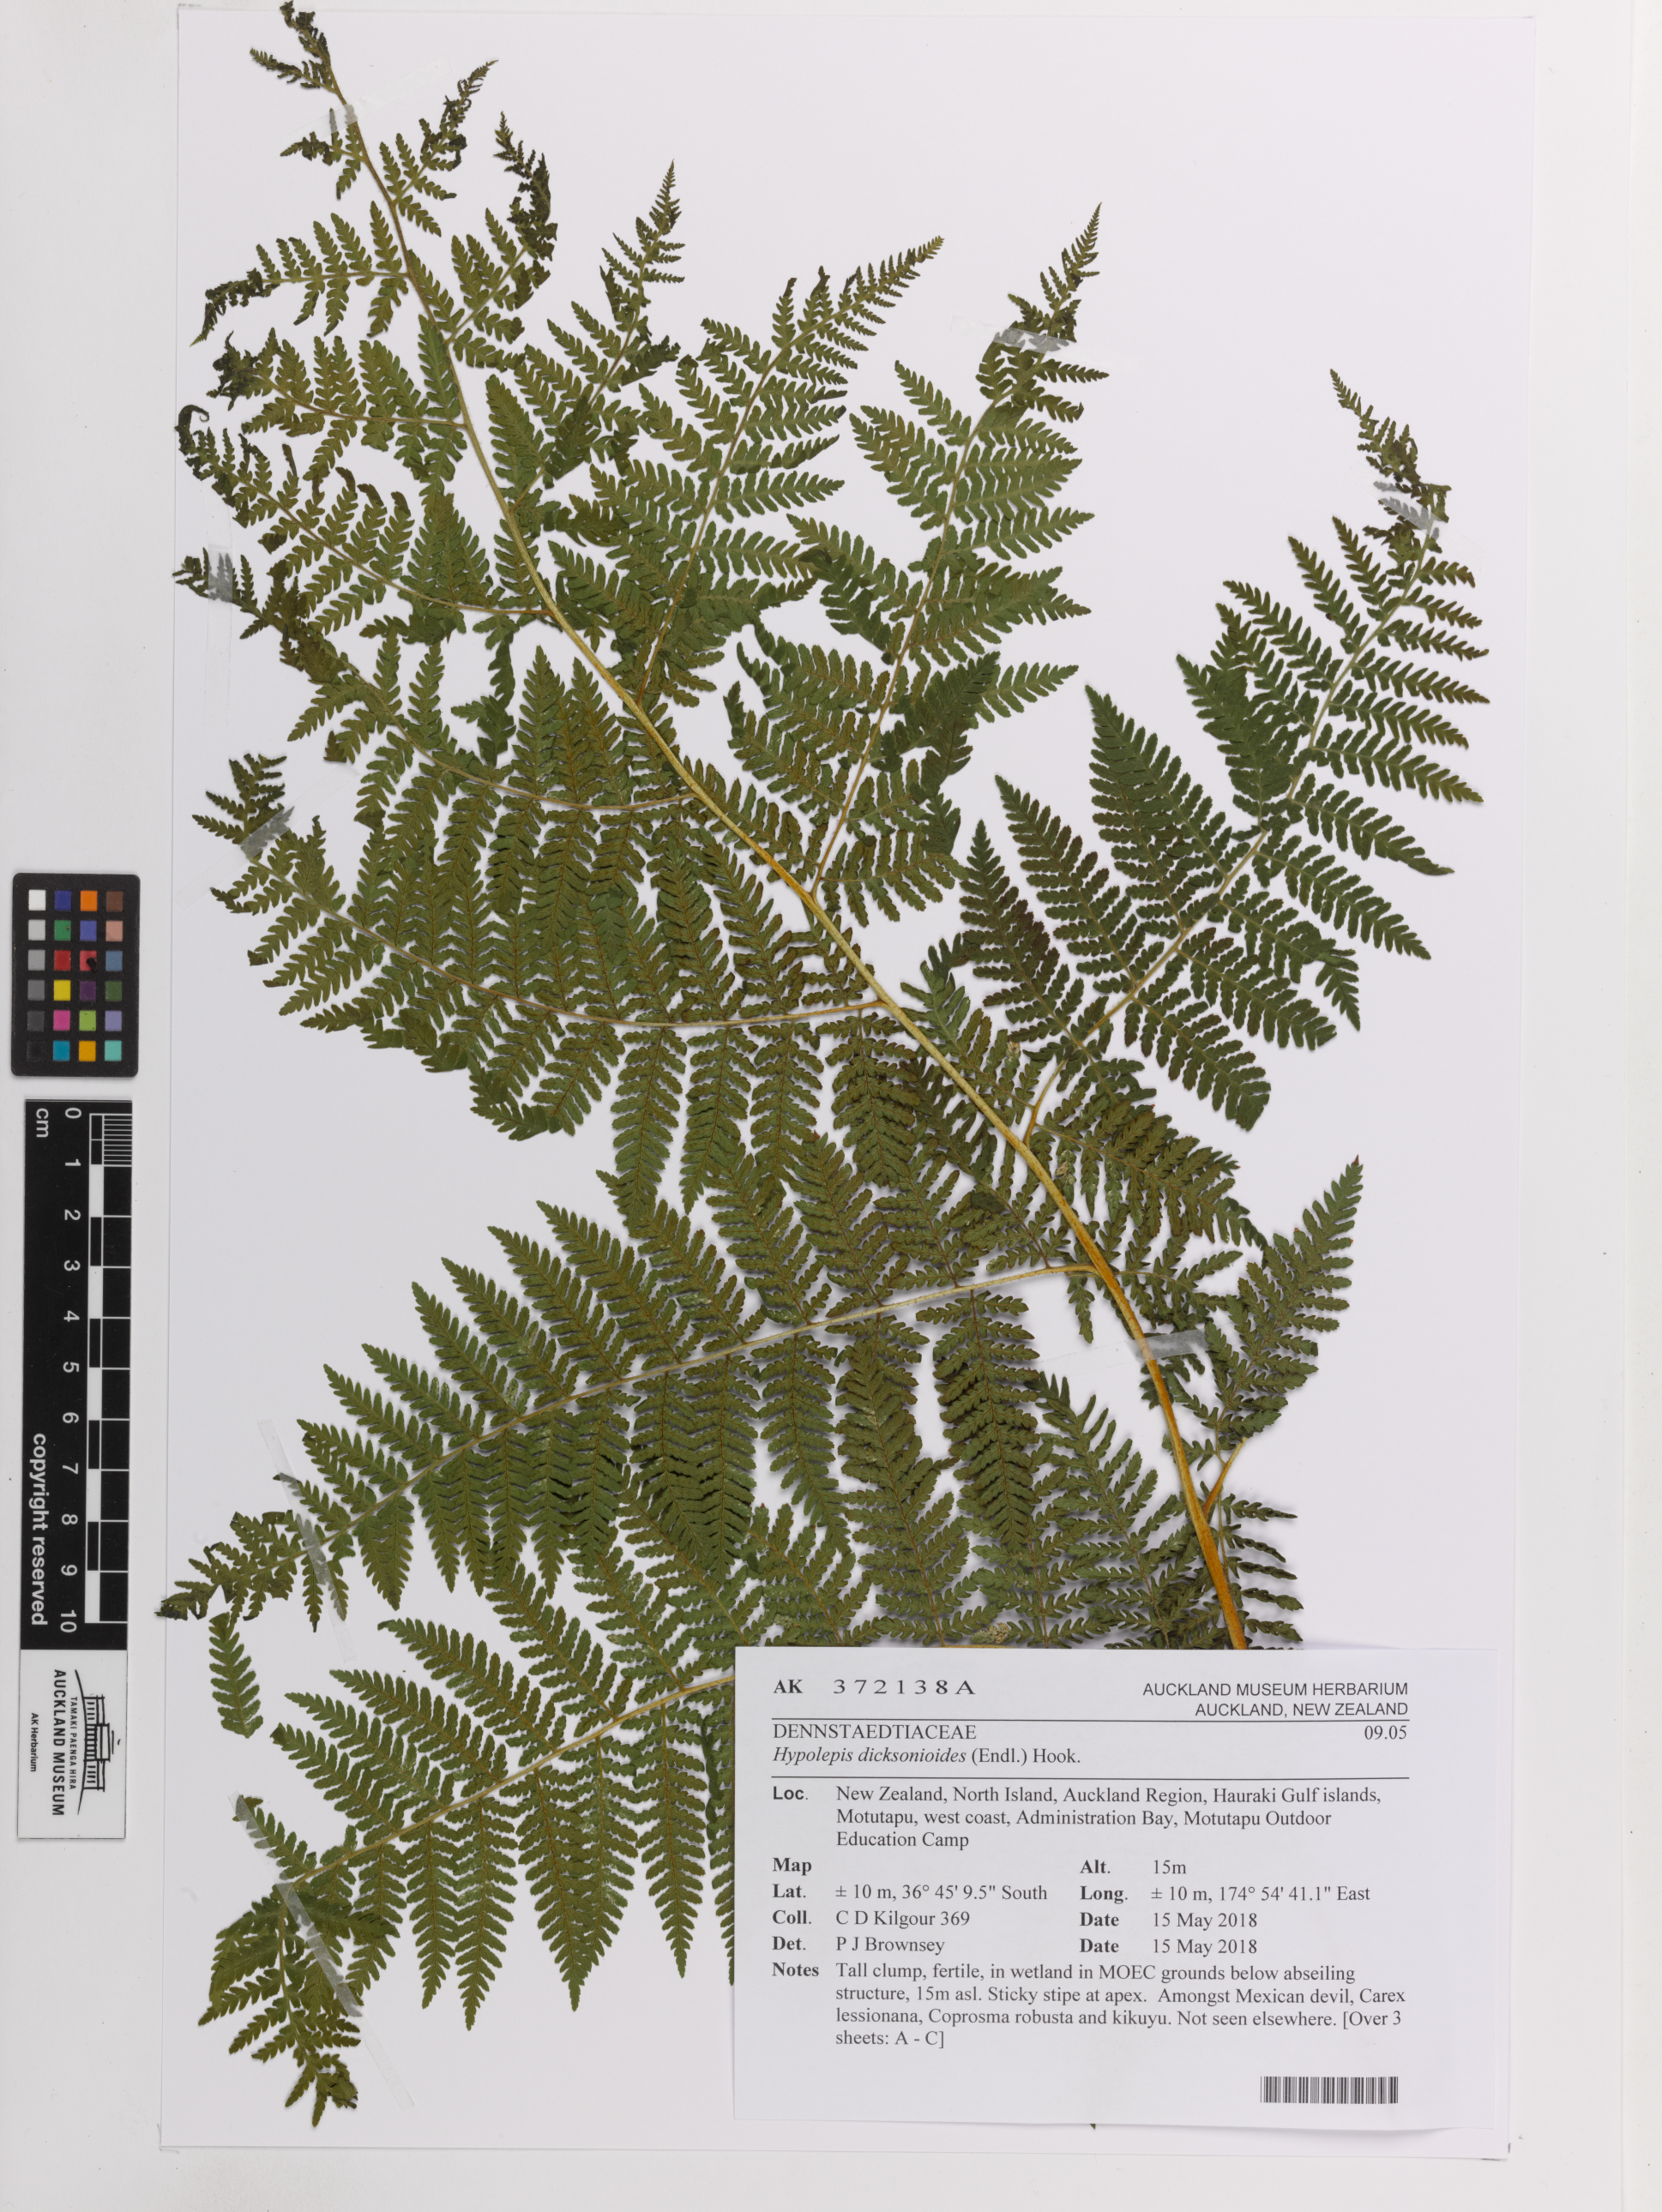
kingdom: Plantae
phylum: Tracheophyta
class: Polypodiopsida
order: Polypodiales
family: Dennstaedtiaceae
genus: Hypolepis
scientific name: Hypolepis dicksonioides
